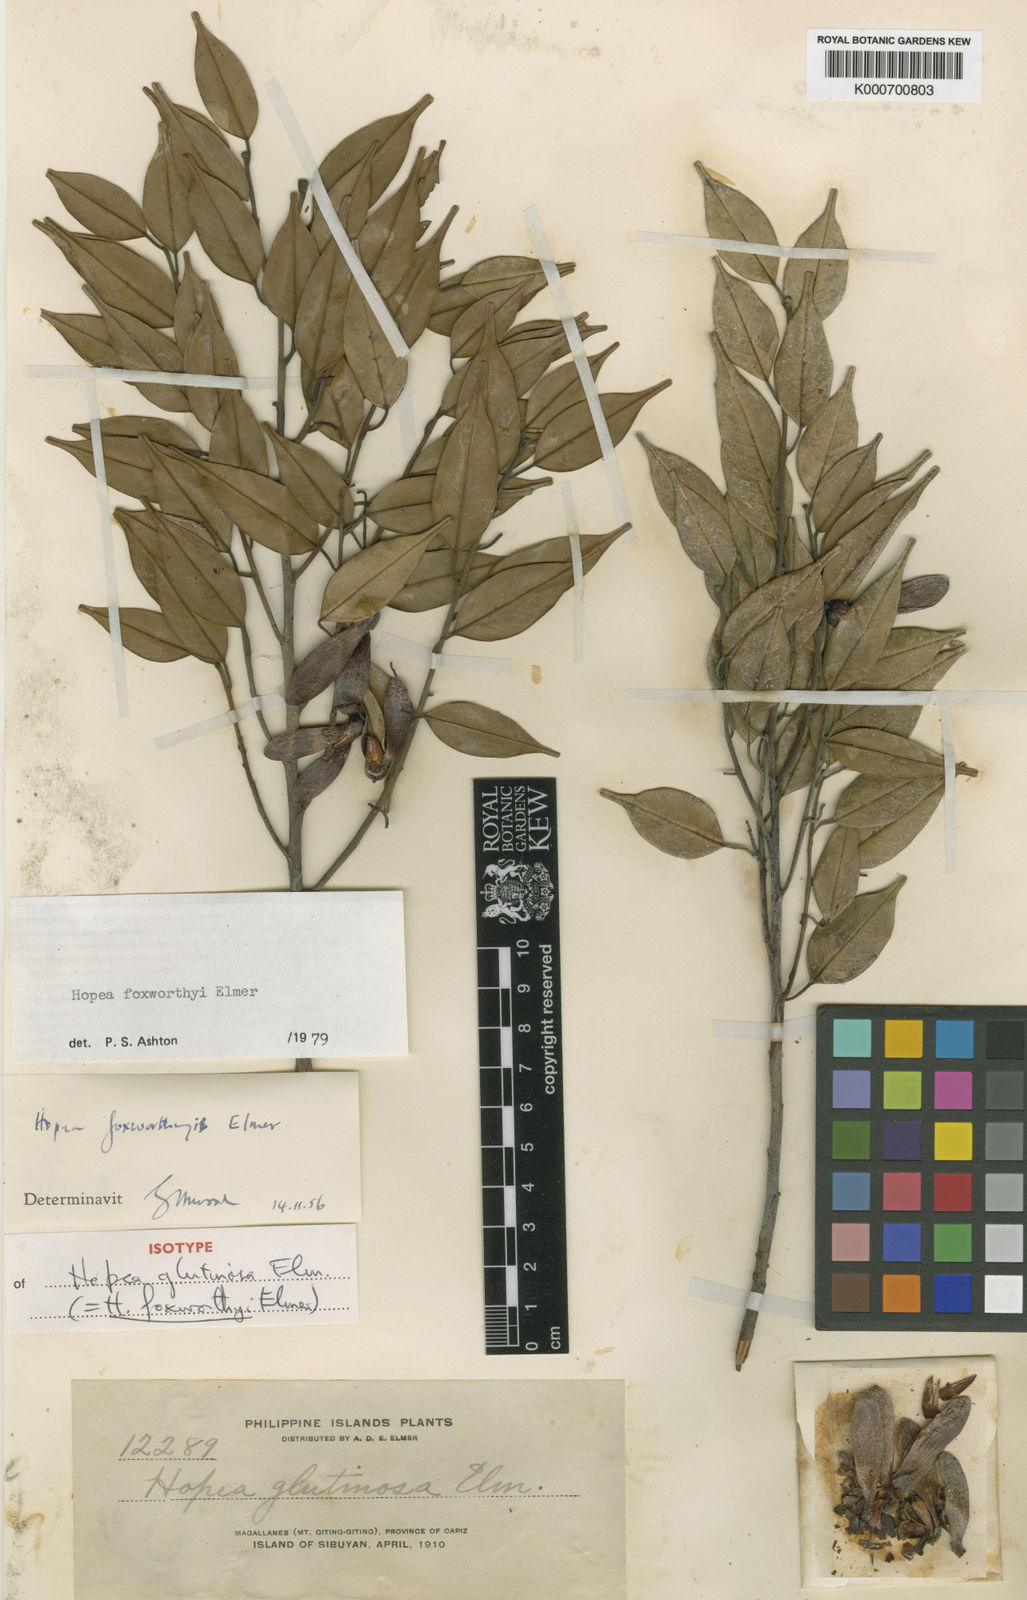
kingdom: Plantae
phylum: Tracheophyta
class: Magnoliopsida
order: Malvales
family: Dipterocarpaceae
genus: Hopea
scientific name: Hopea foxworthyi
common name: Dalingdingan
